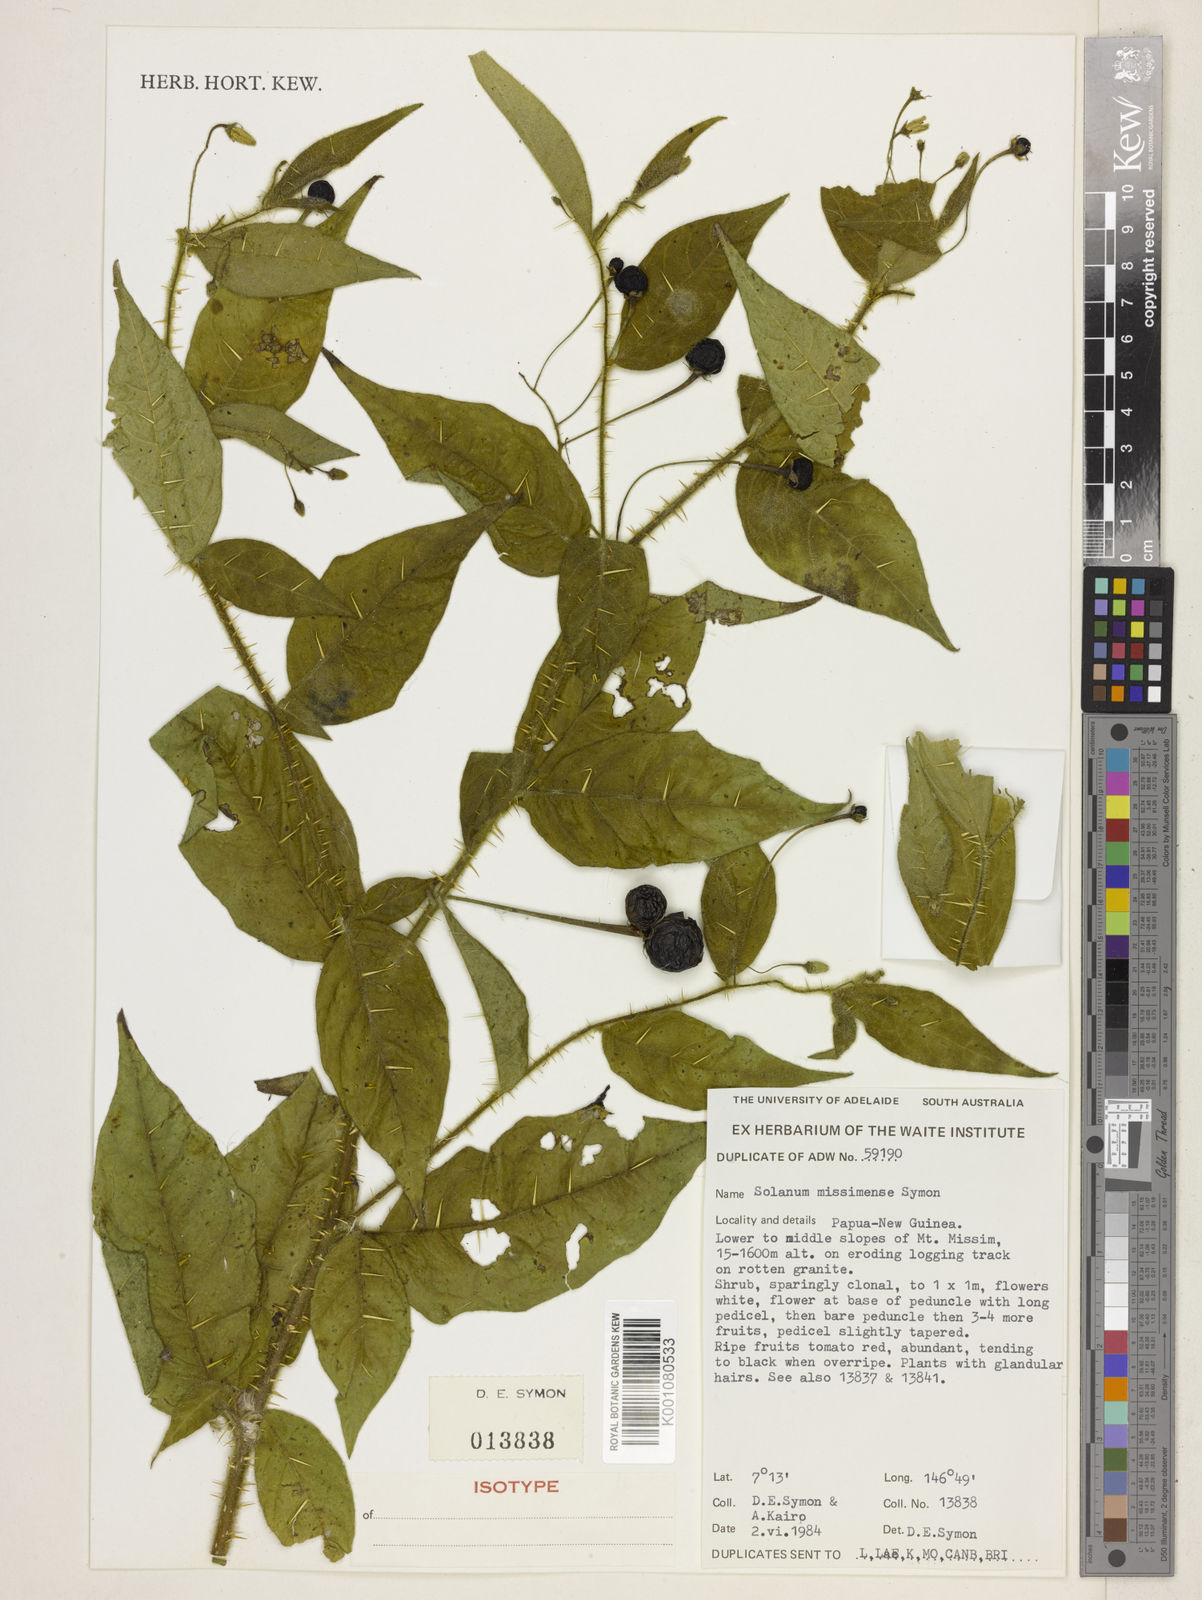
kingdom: Plantae
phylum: Tracheophyta
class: Magnoliopsida
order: Solanales
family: Solanaceae
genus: Solanum
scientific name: Solanum missimense
